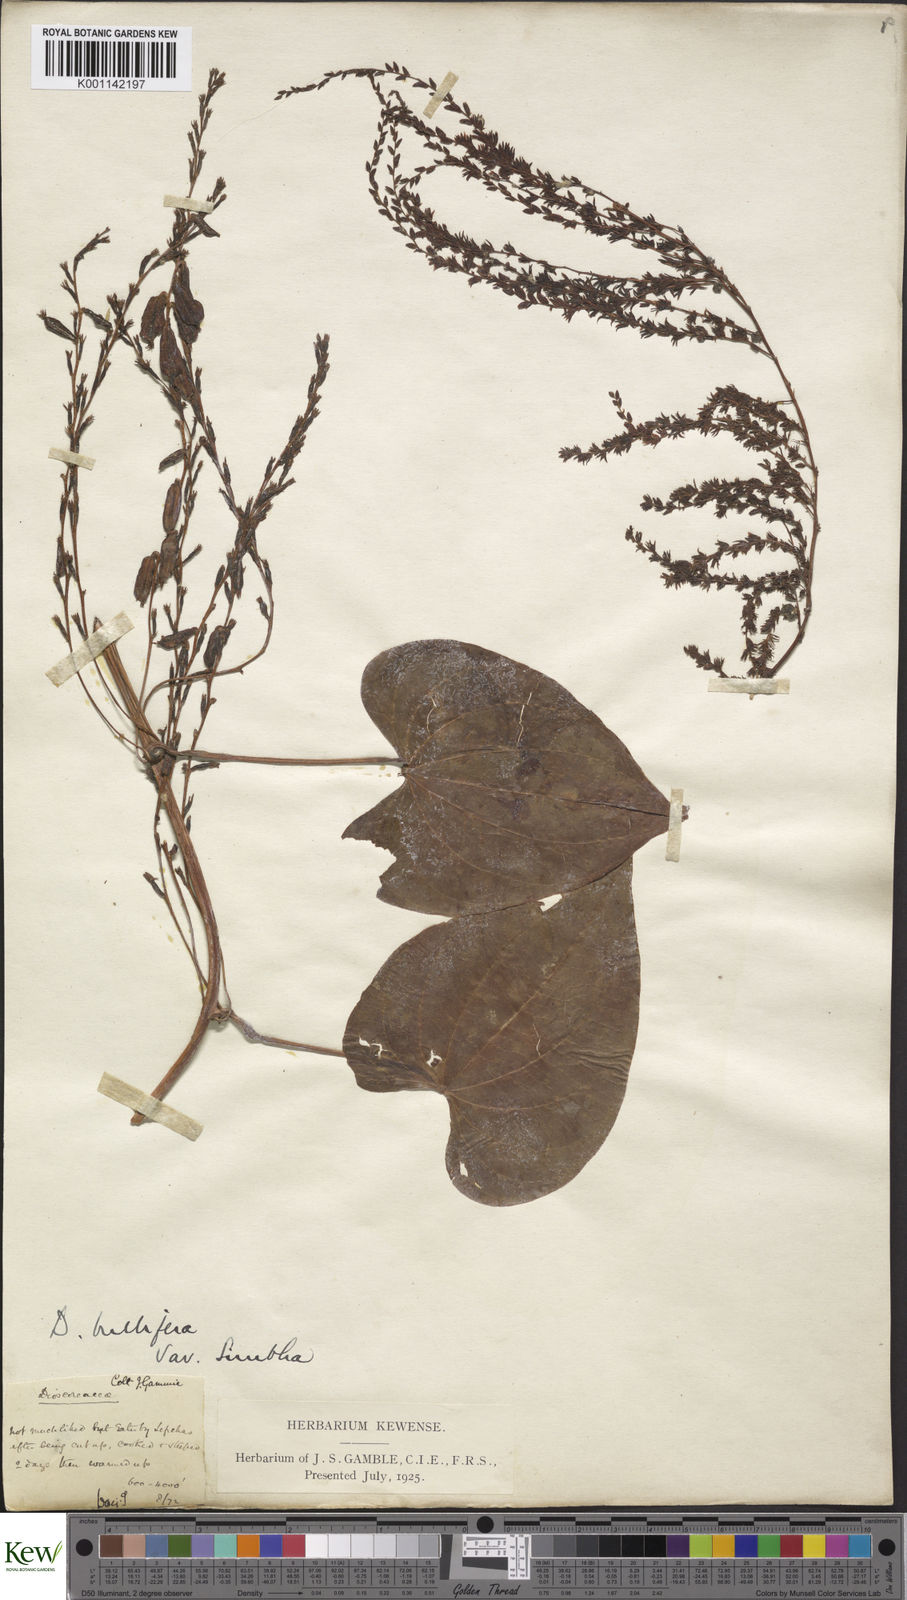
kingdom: Plantae
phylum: Tracheophyta
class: Liliopsida
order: Dioscoreales
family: Dioscoreaceae
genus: Dioscorea
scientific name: Dioscorea bulbifera
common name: Air yam
